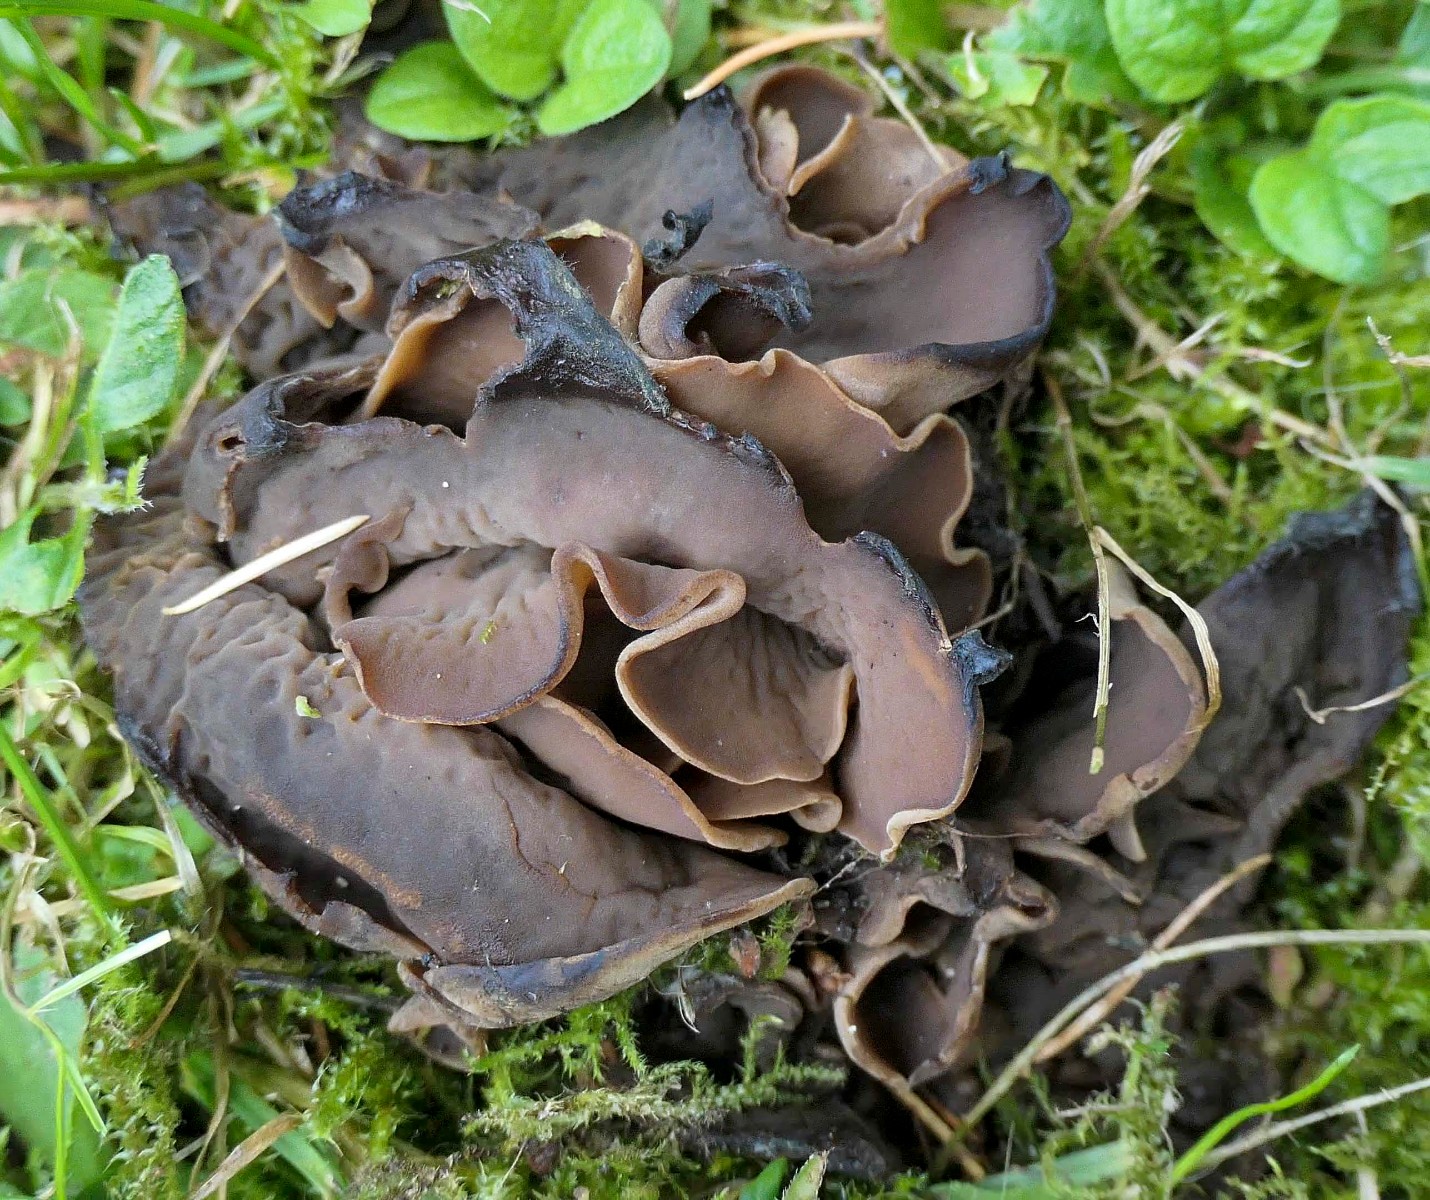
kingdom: Fungi
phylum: Ascomycota
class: Pezizomycetes
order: Pezizales
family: Otideaceae
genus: Otidea
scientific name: Otidea platyspora
